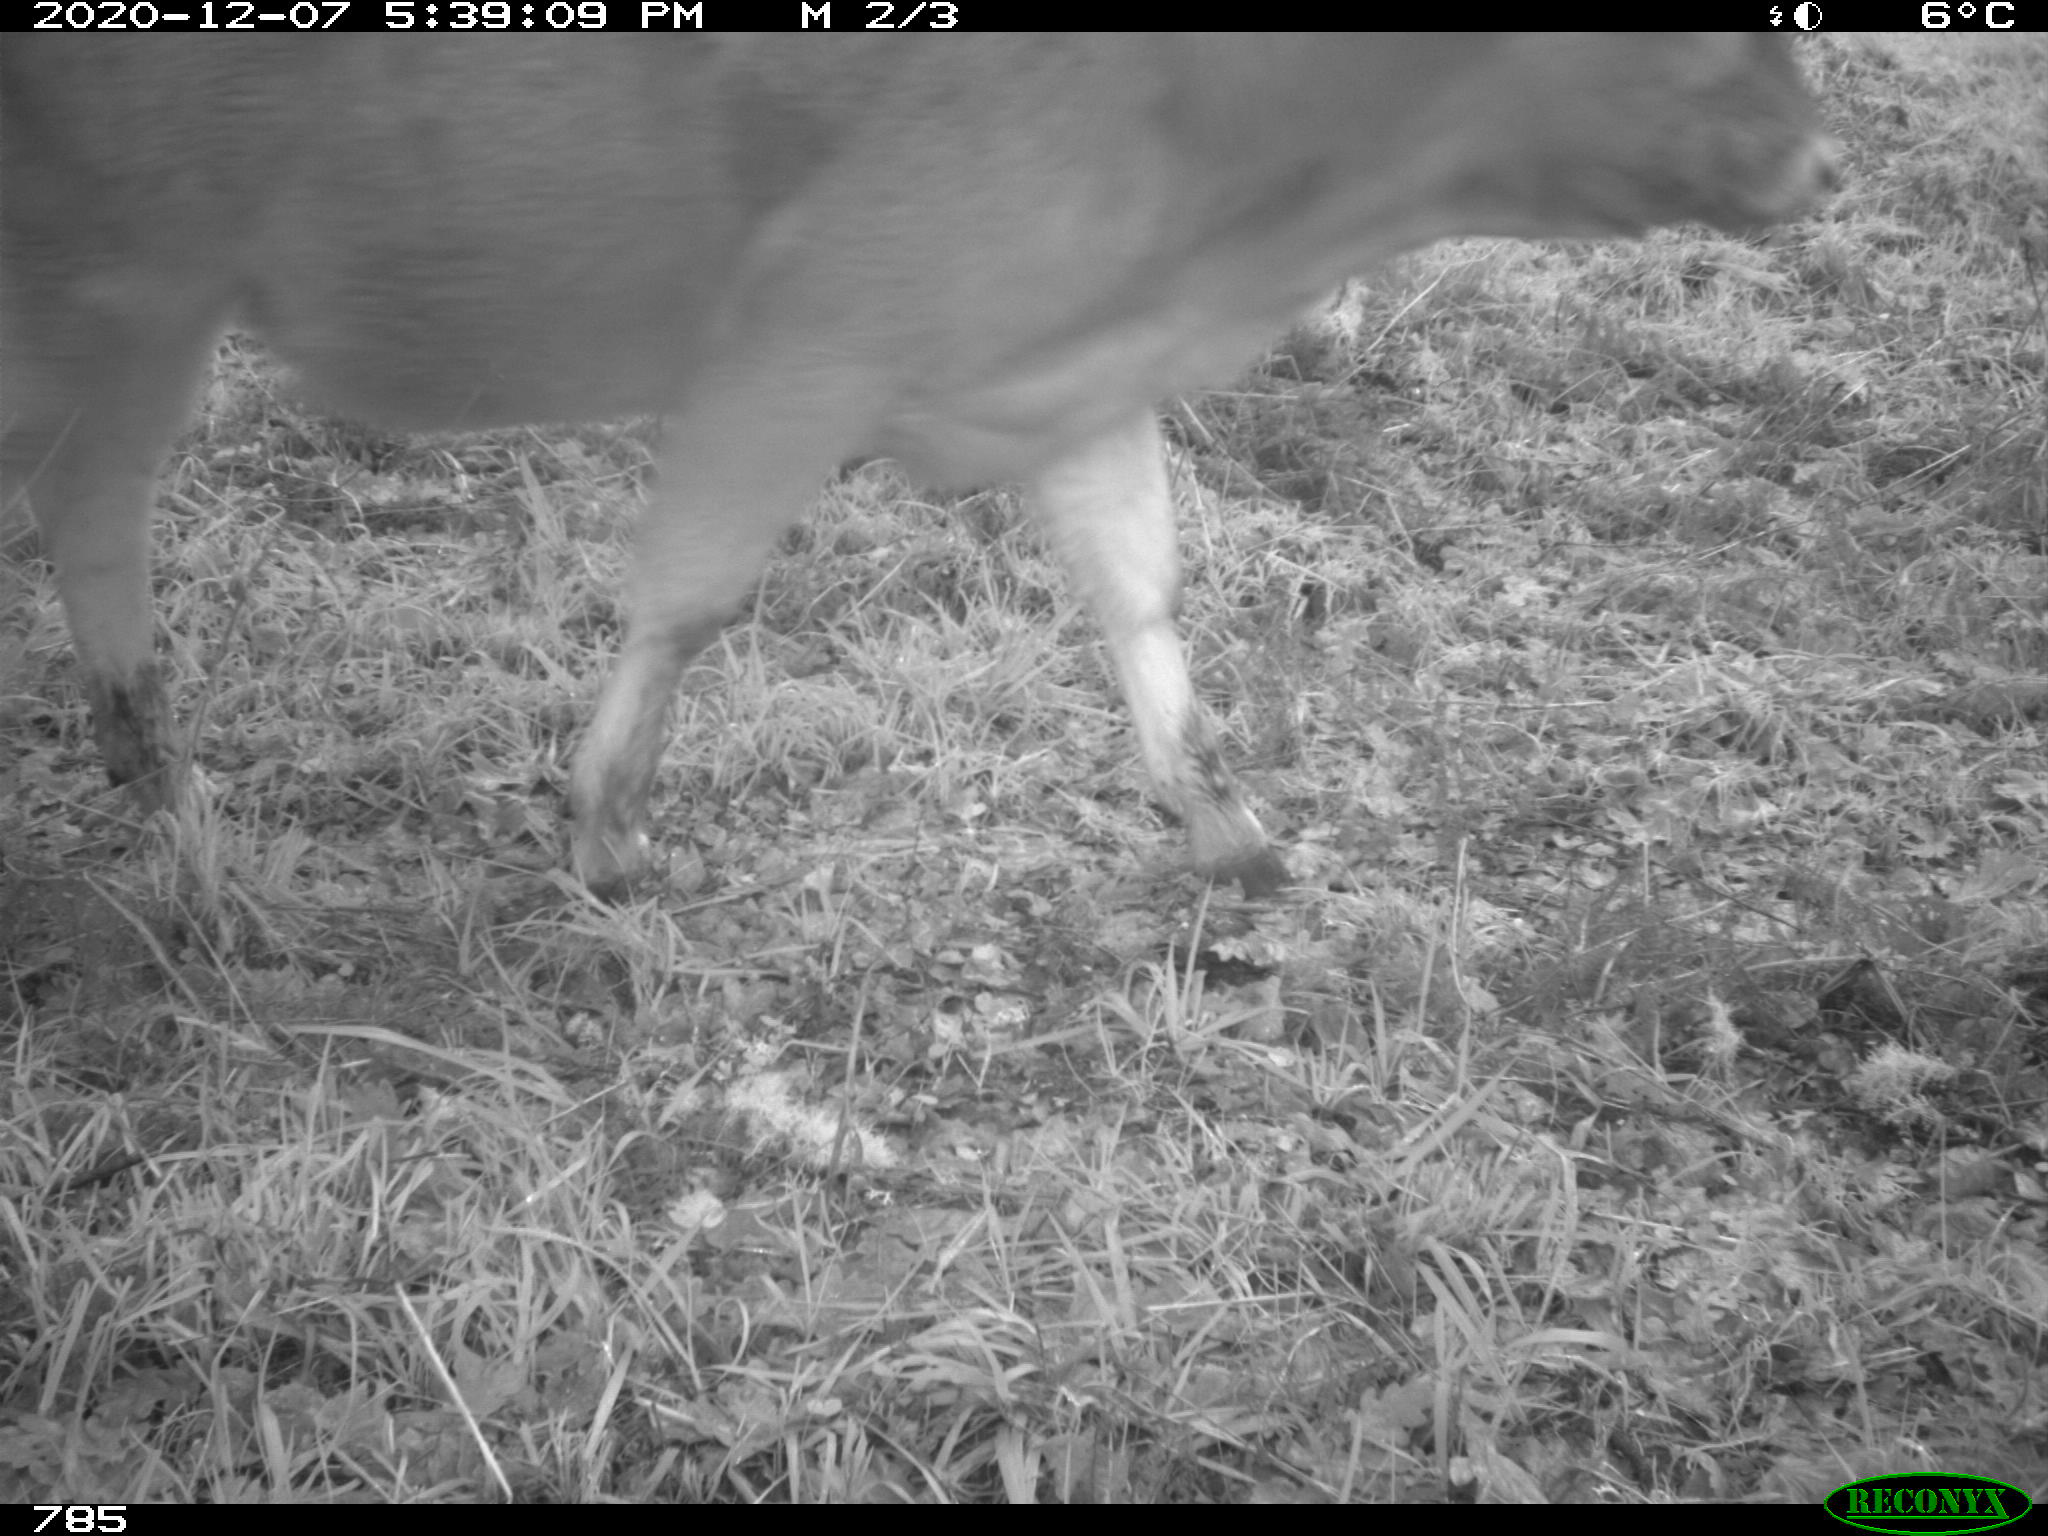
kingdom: Animalia
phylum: Chordata
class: Mammalia
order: Artiodactyla
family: Bovidae
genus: Bos
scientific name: Bos taurus
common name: Domesticated cattle
